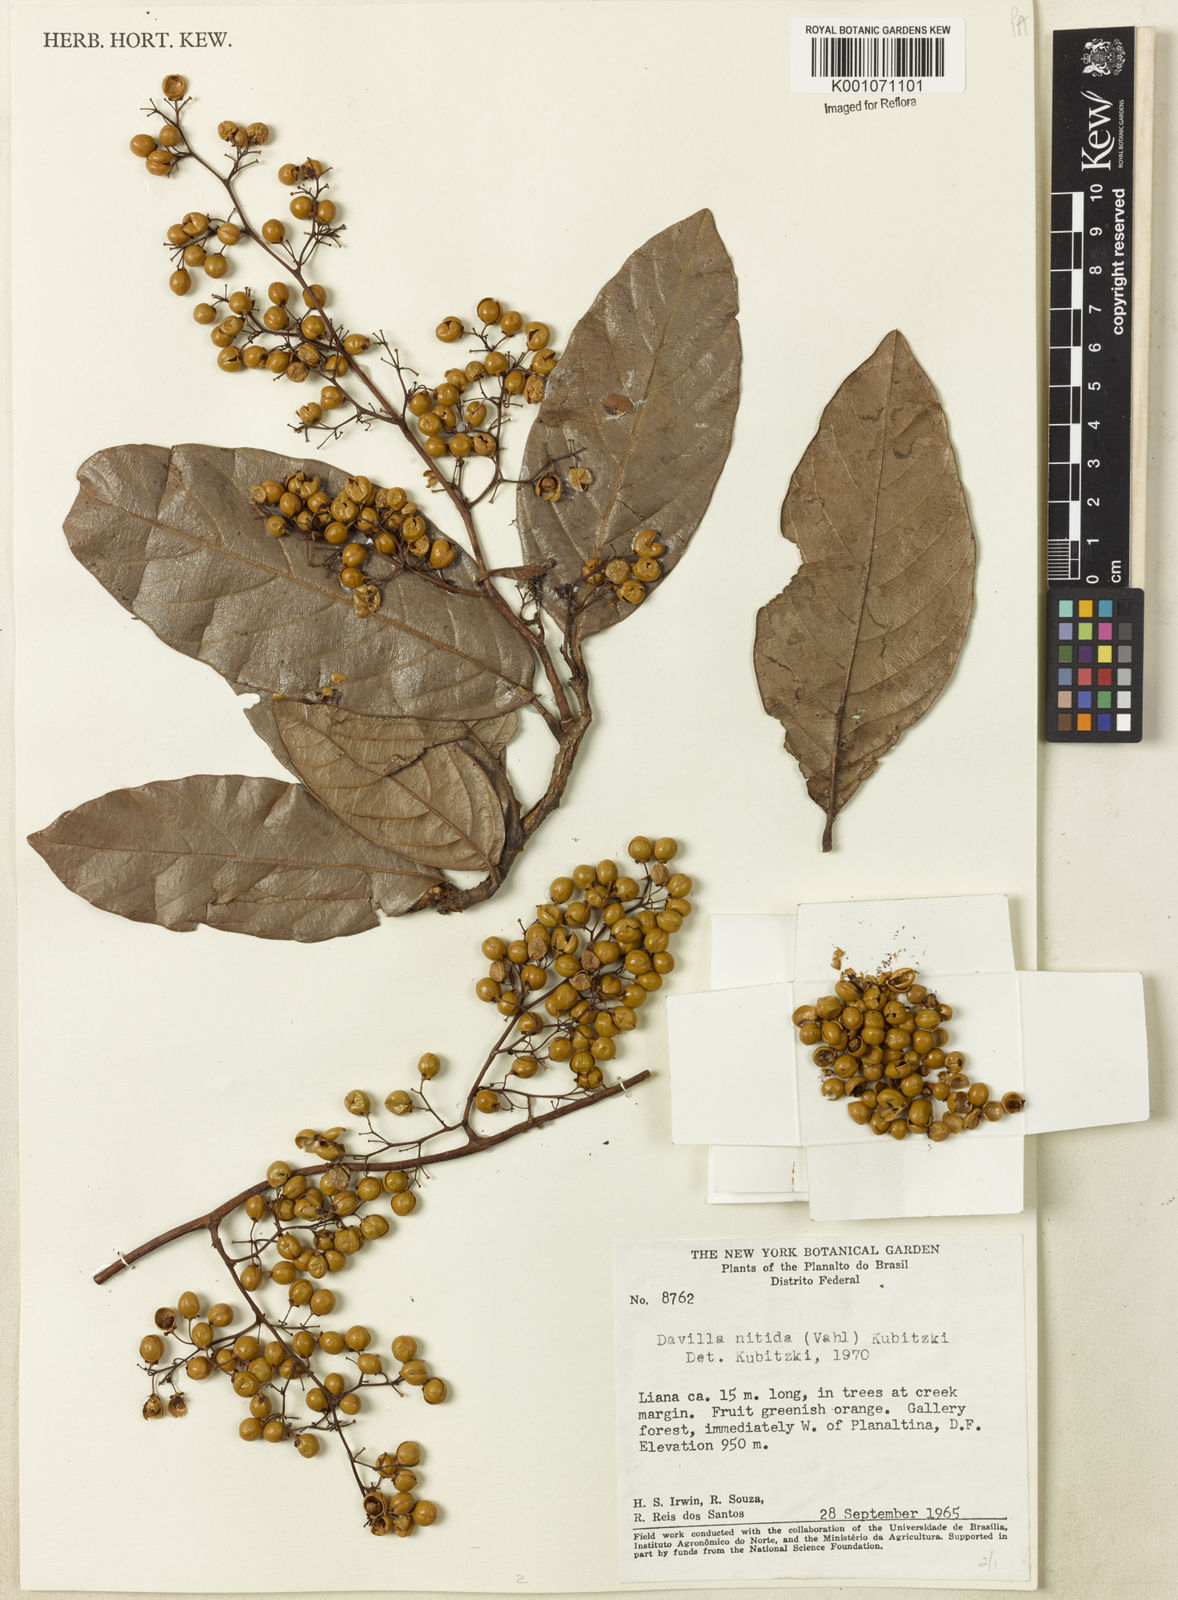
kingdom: Plantae
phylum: Tracheophyta
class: Magnoliopsida
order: Dilleniales
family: Dilleniaceae
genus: Davilla
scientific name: Davilla nitida
